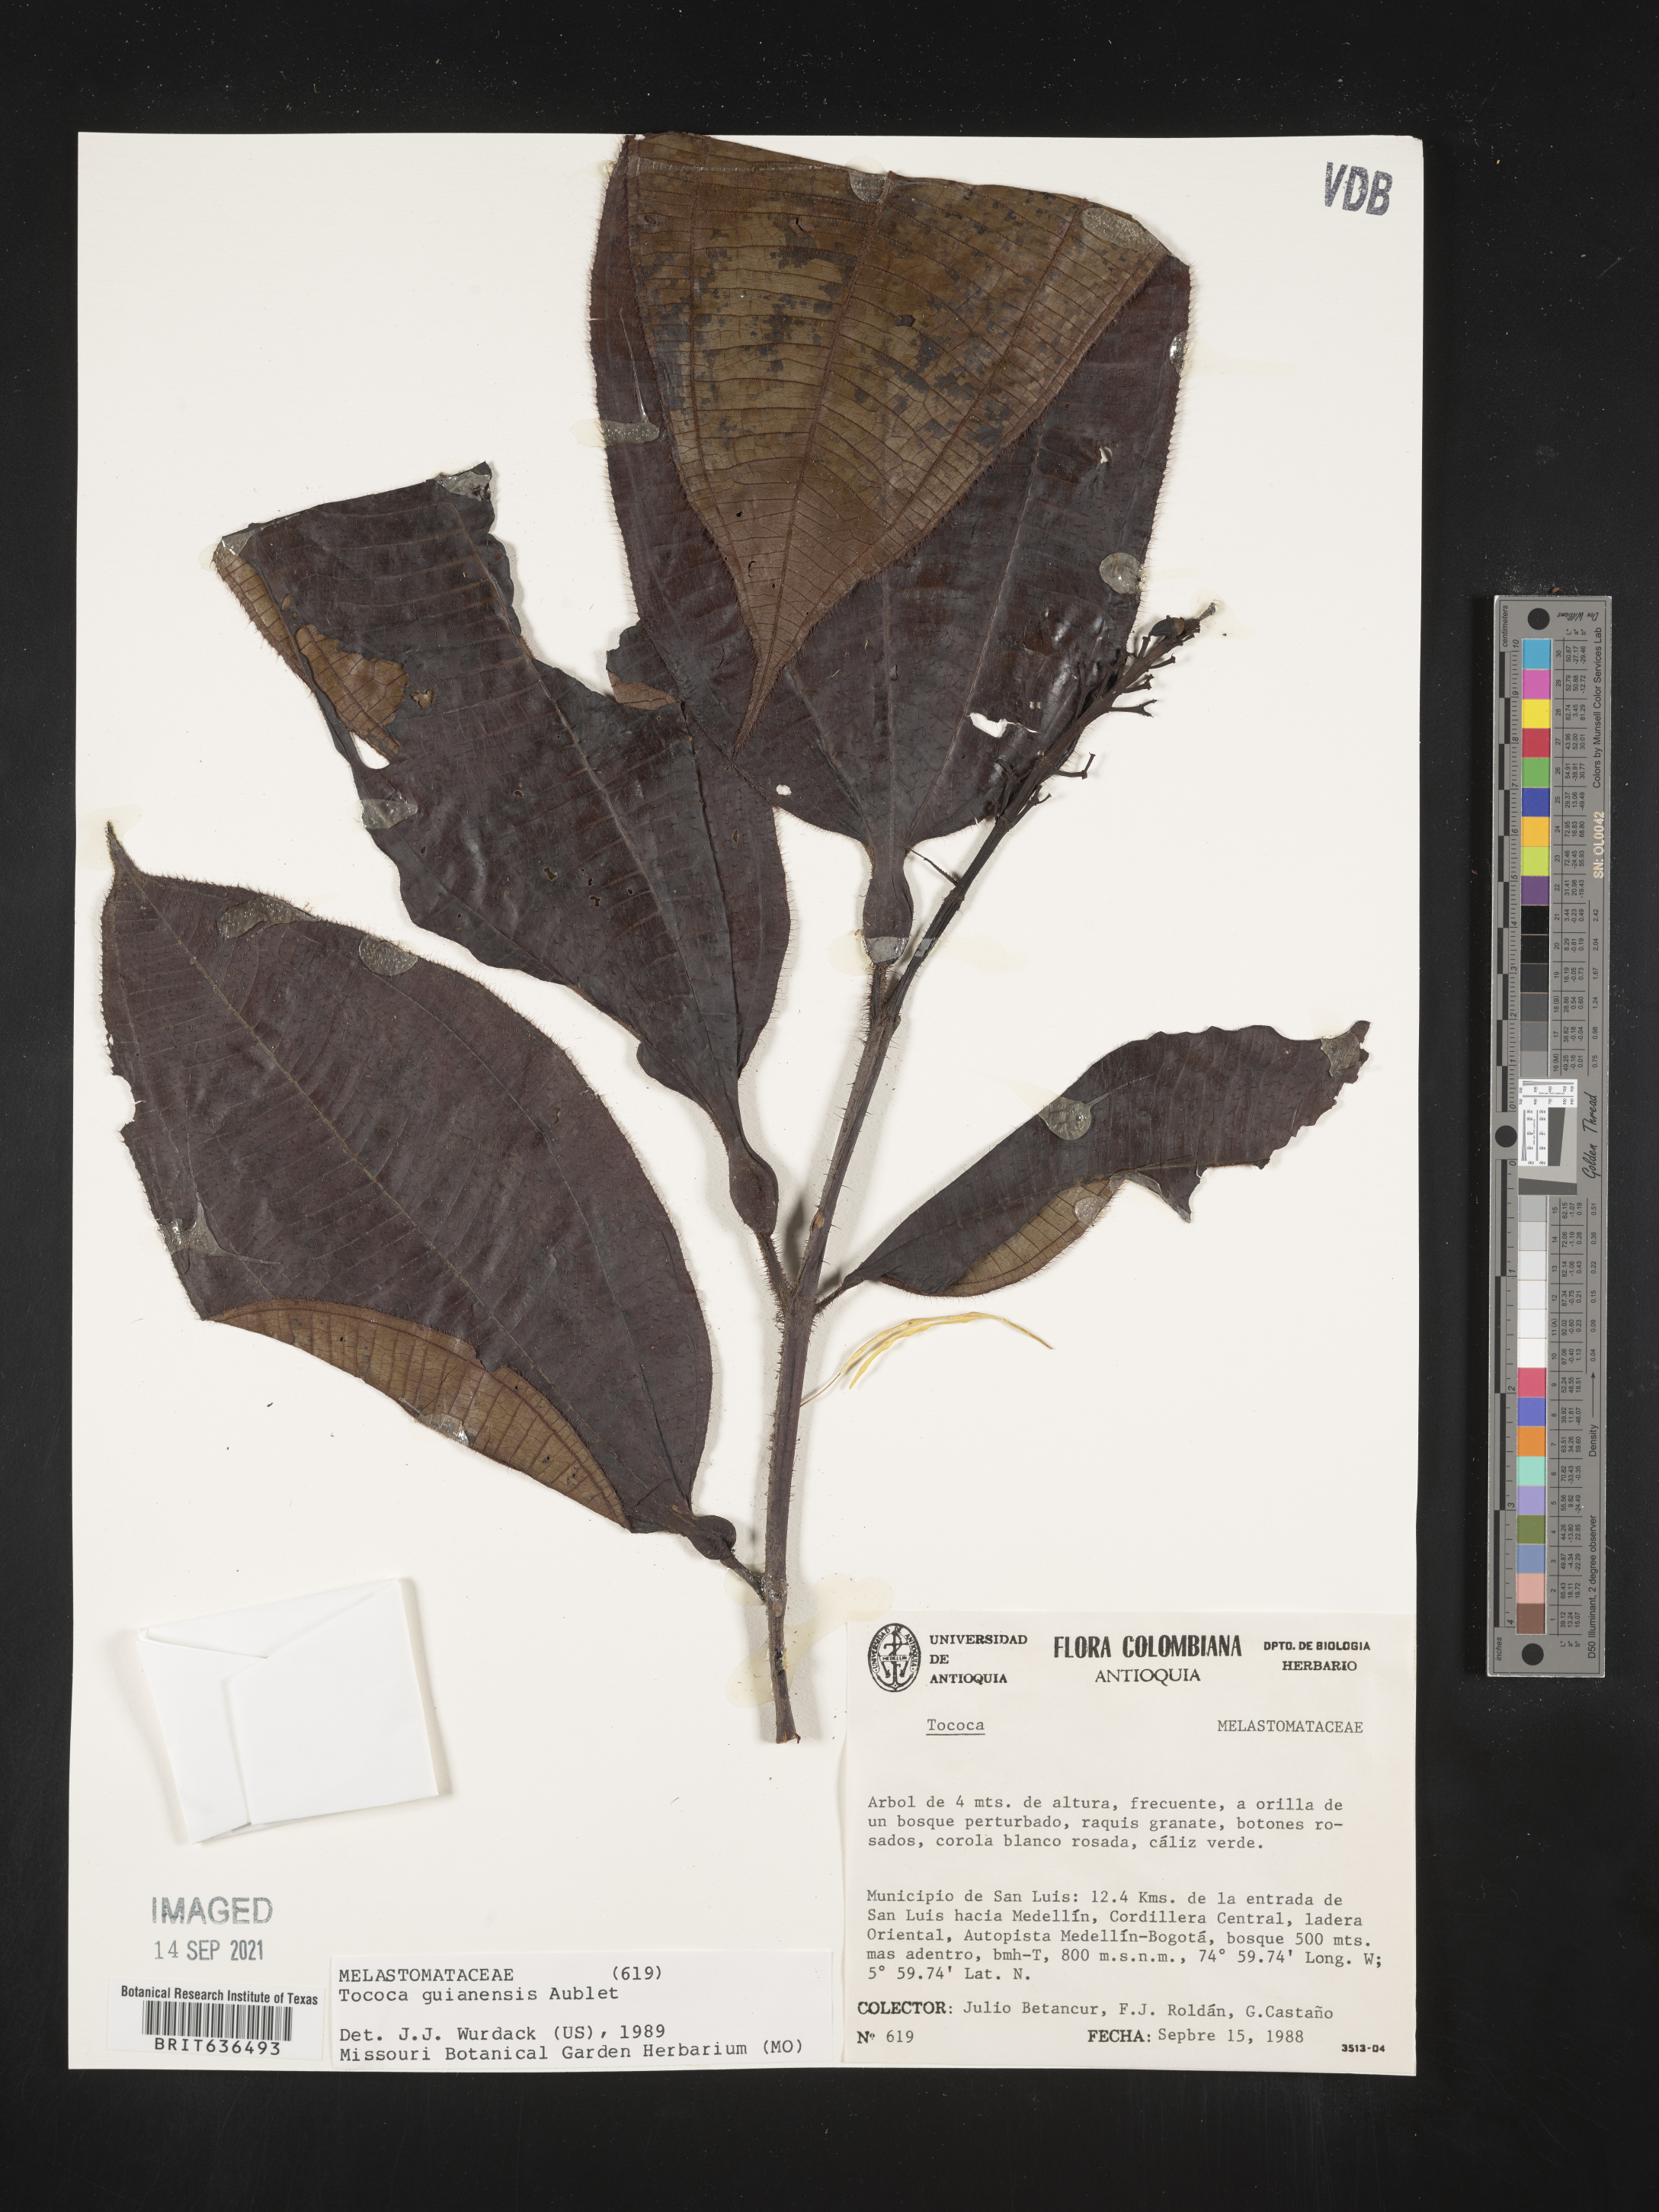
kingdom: Plantae
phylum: Tracheophyta
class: Magnoliopsida
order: Myrtales
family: Melastomataceae
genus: Tibouchina
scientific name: Tibouchina
